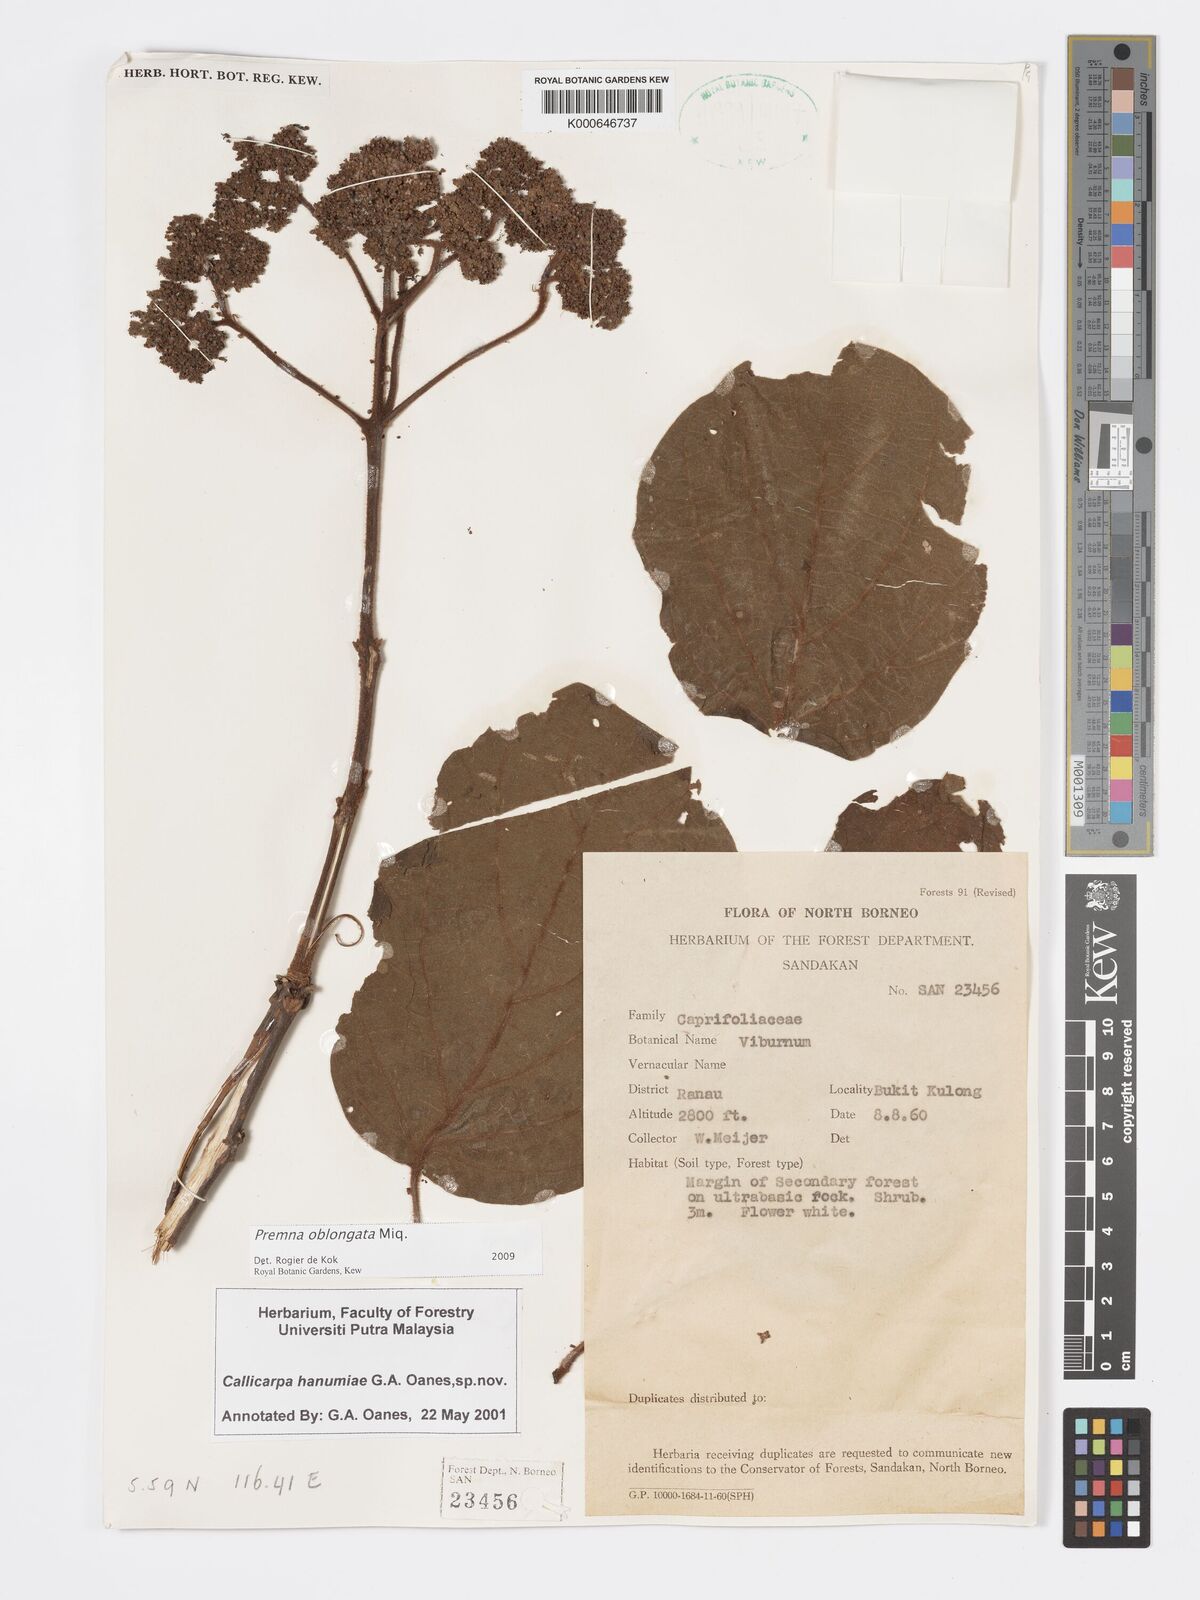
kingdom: Plantae
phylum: Tracheophyta
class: Magnoliopsida
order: Lamiales
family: Lamiaceae
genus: Premna
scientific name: Premna oblongata
